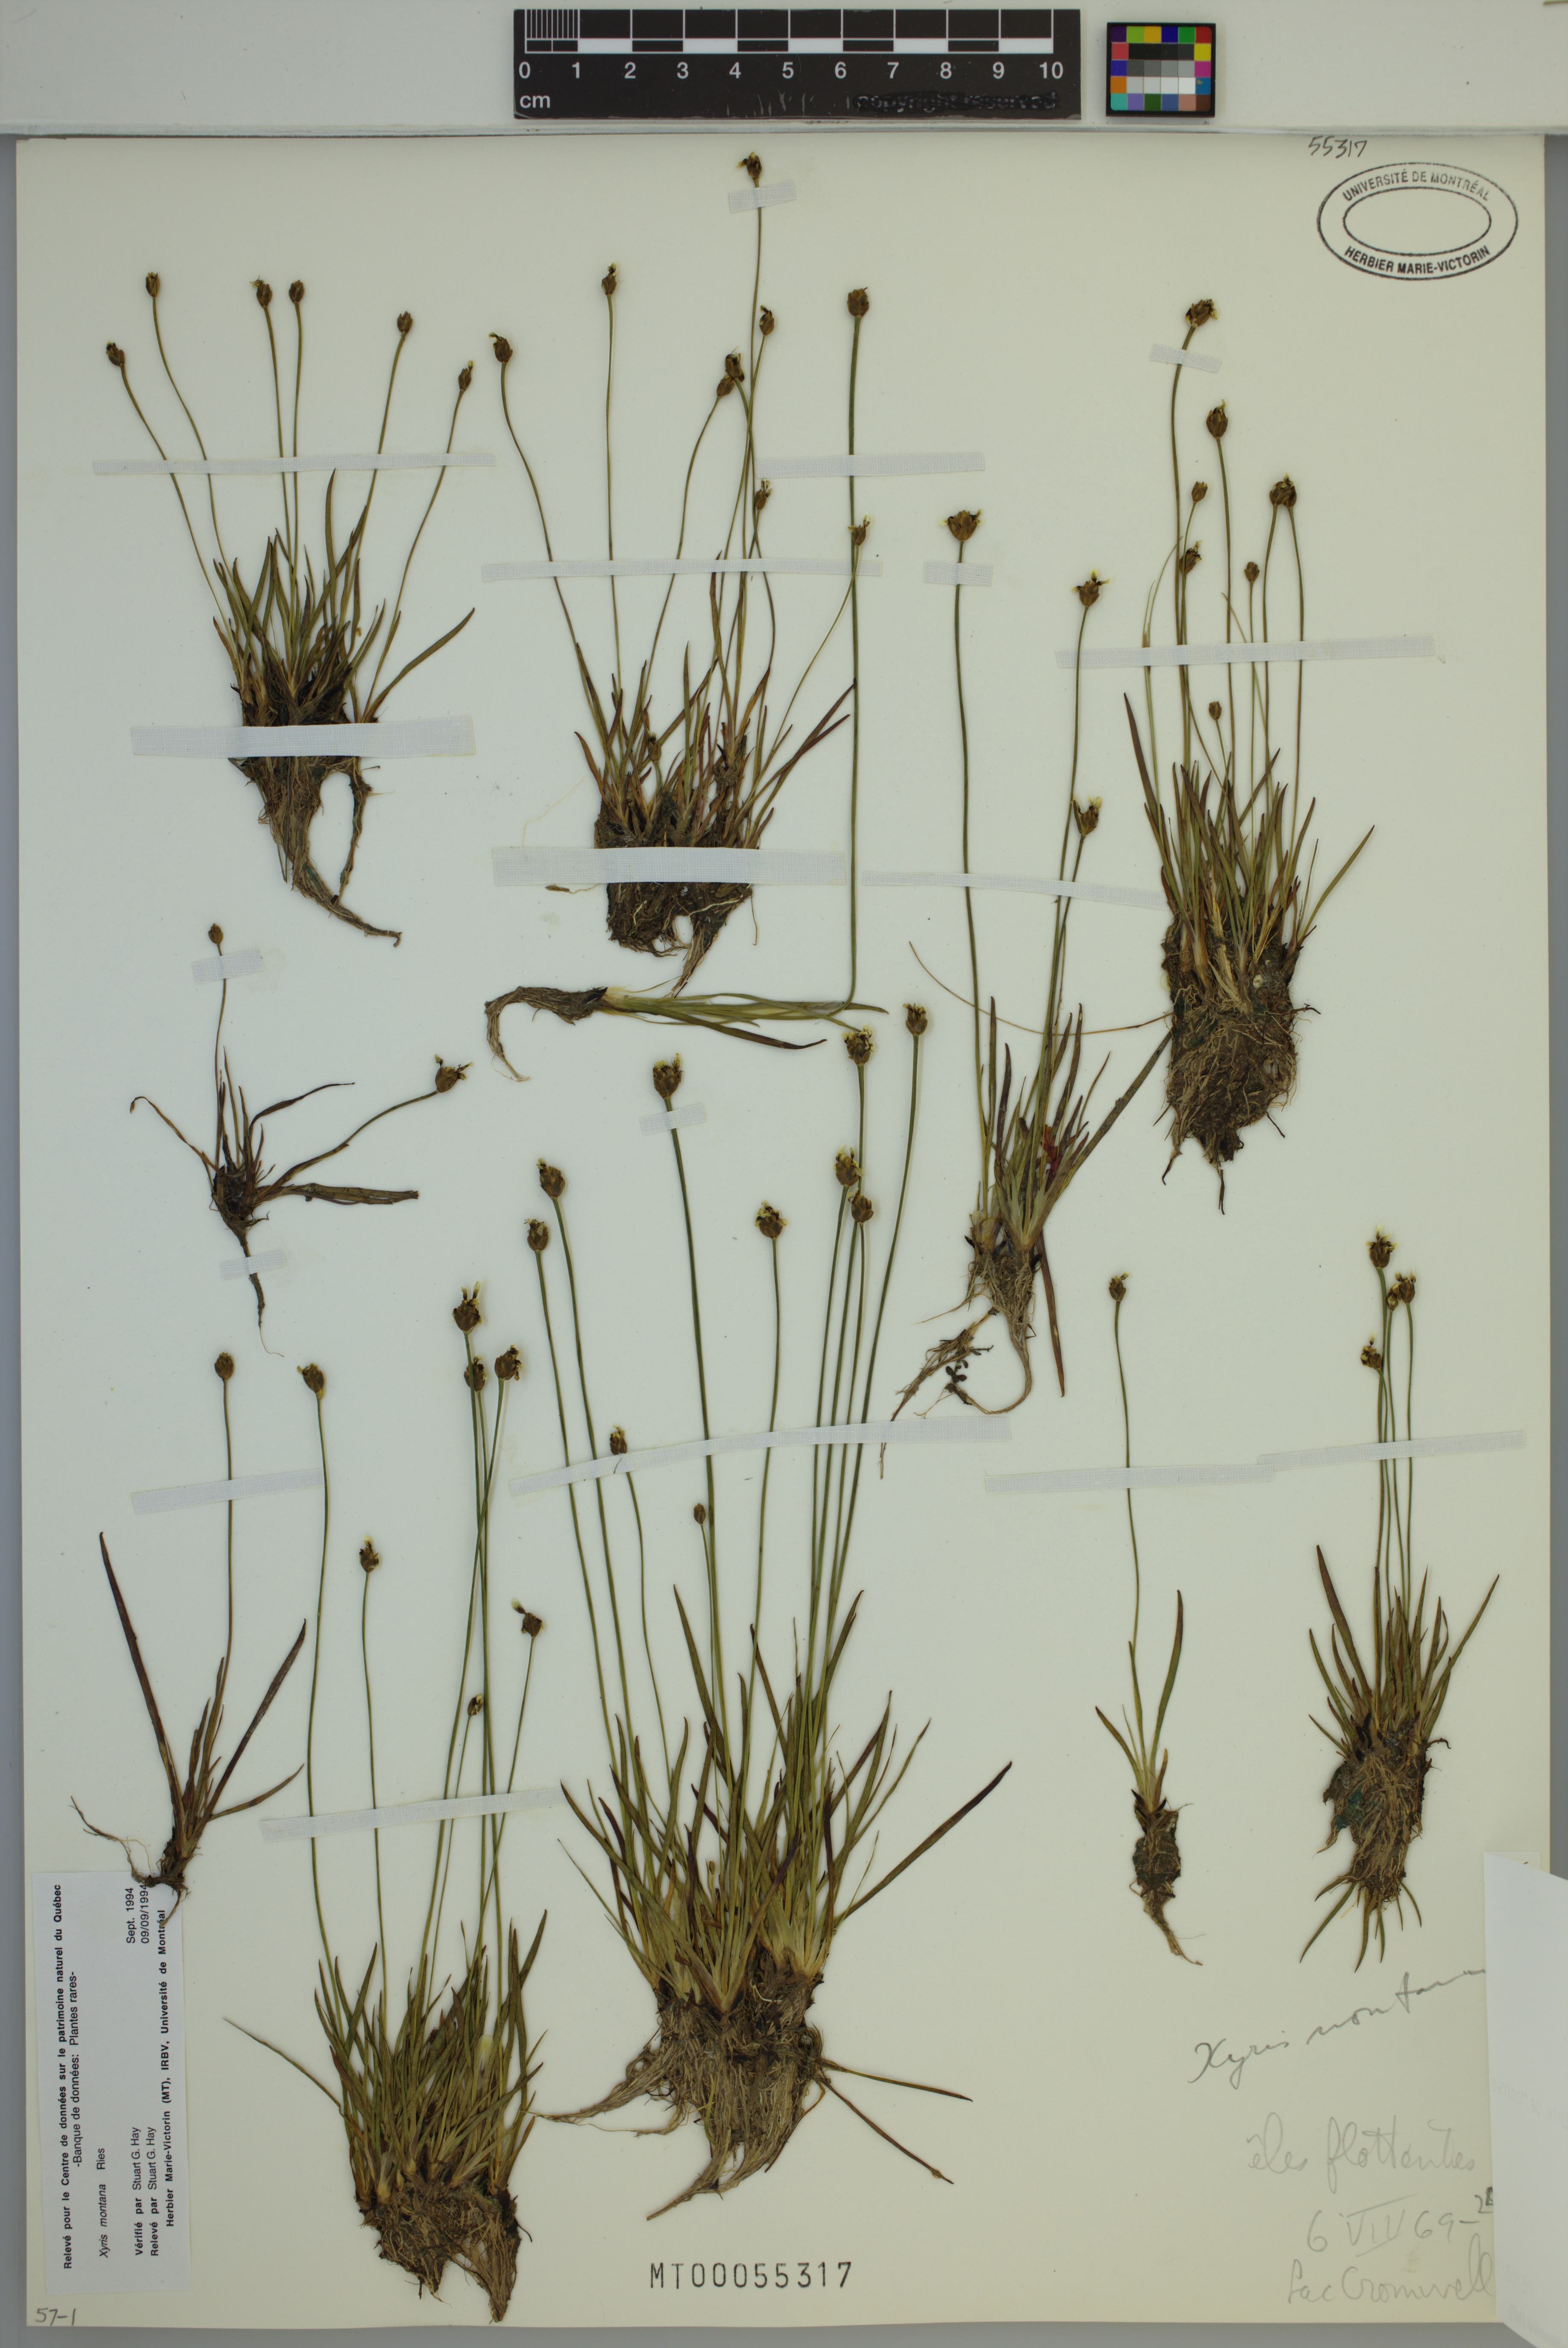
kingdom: Plantae
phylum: Tracheophyta
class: Liliopsida
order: Poales
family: Xyridaceae
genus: Xyris
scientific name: Xyris montana
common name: Northern yellow-eyed-grass
